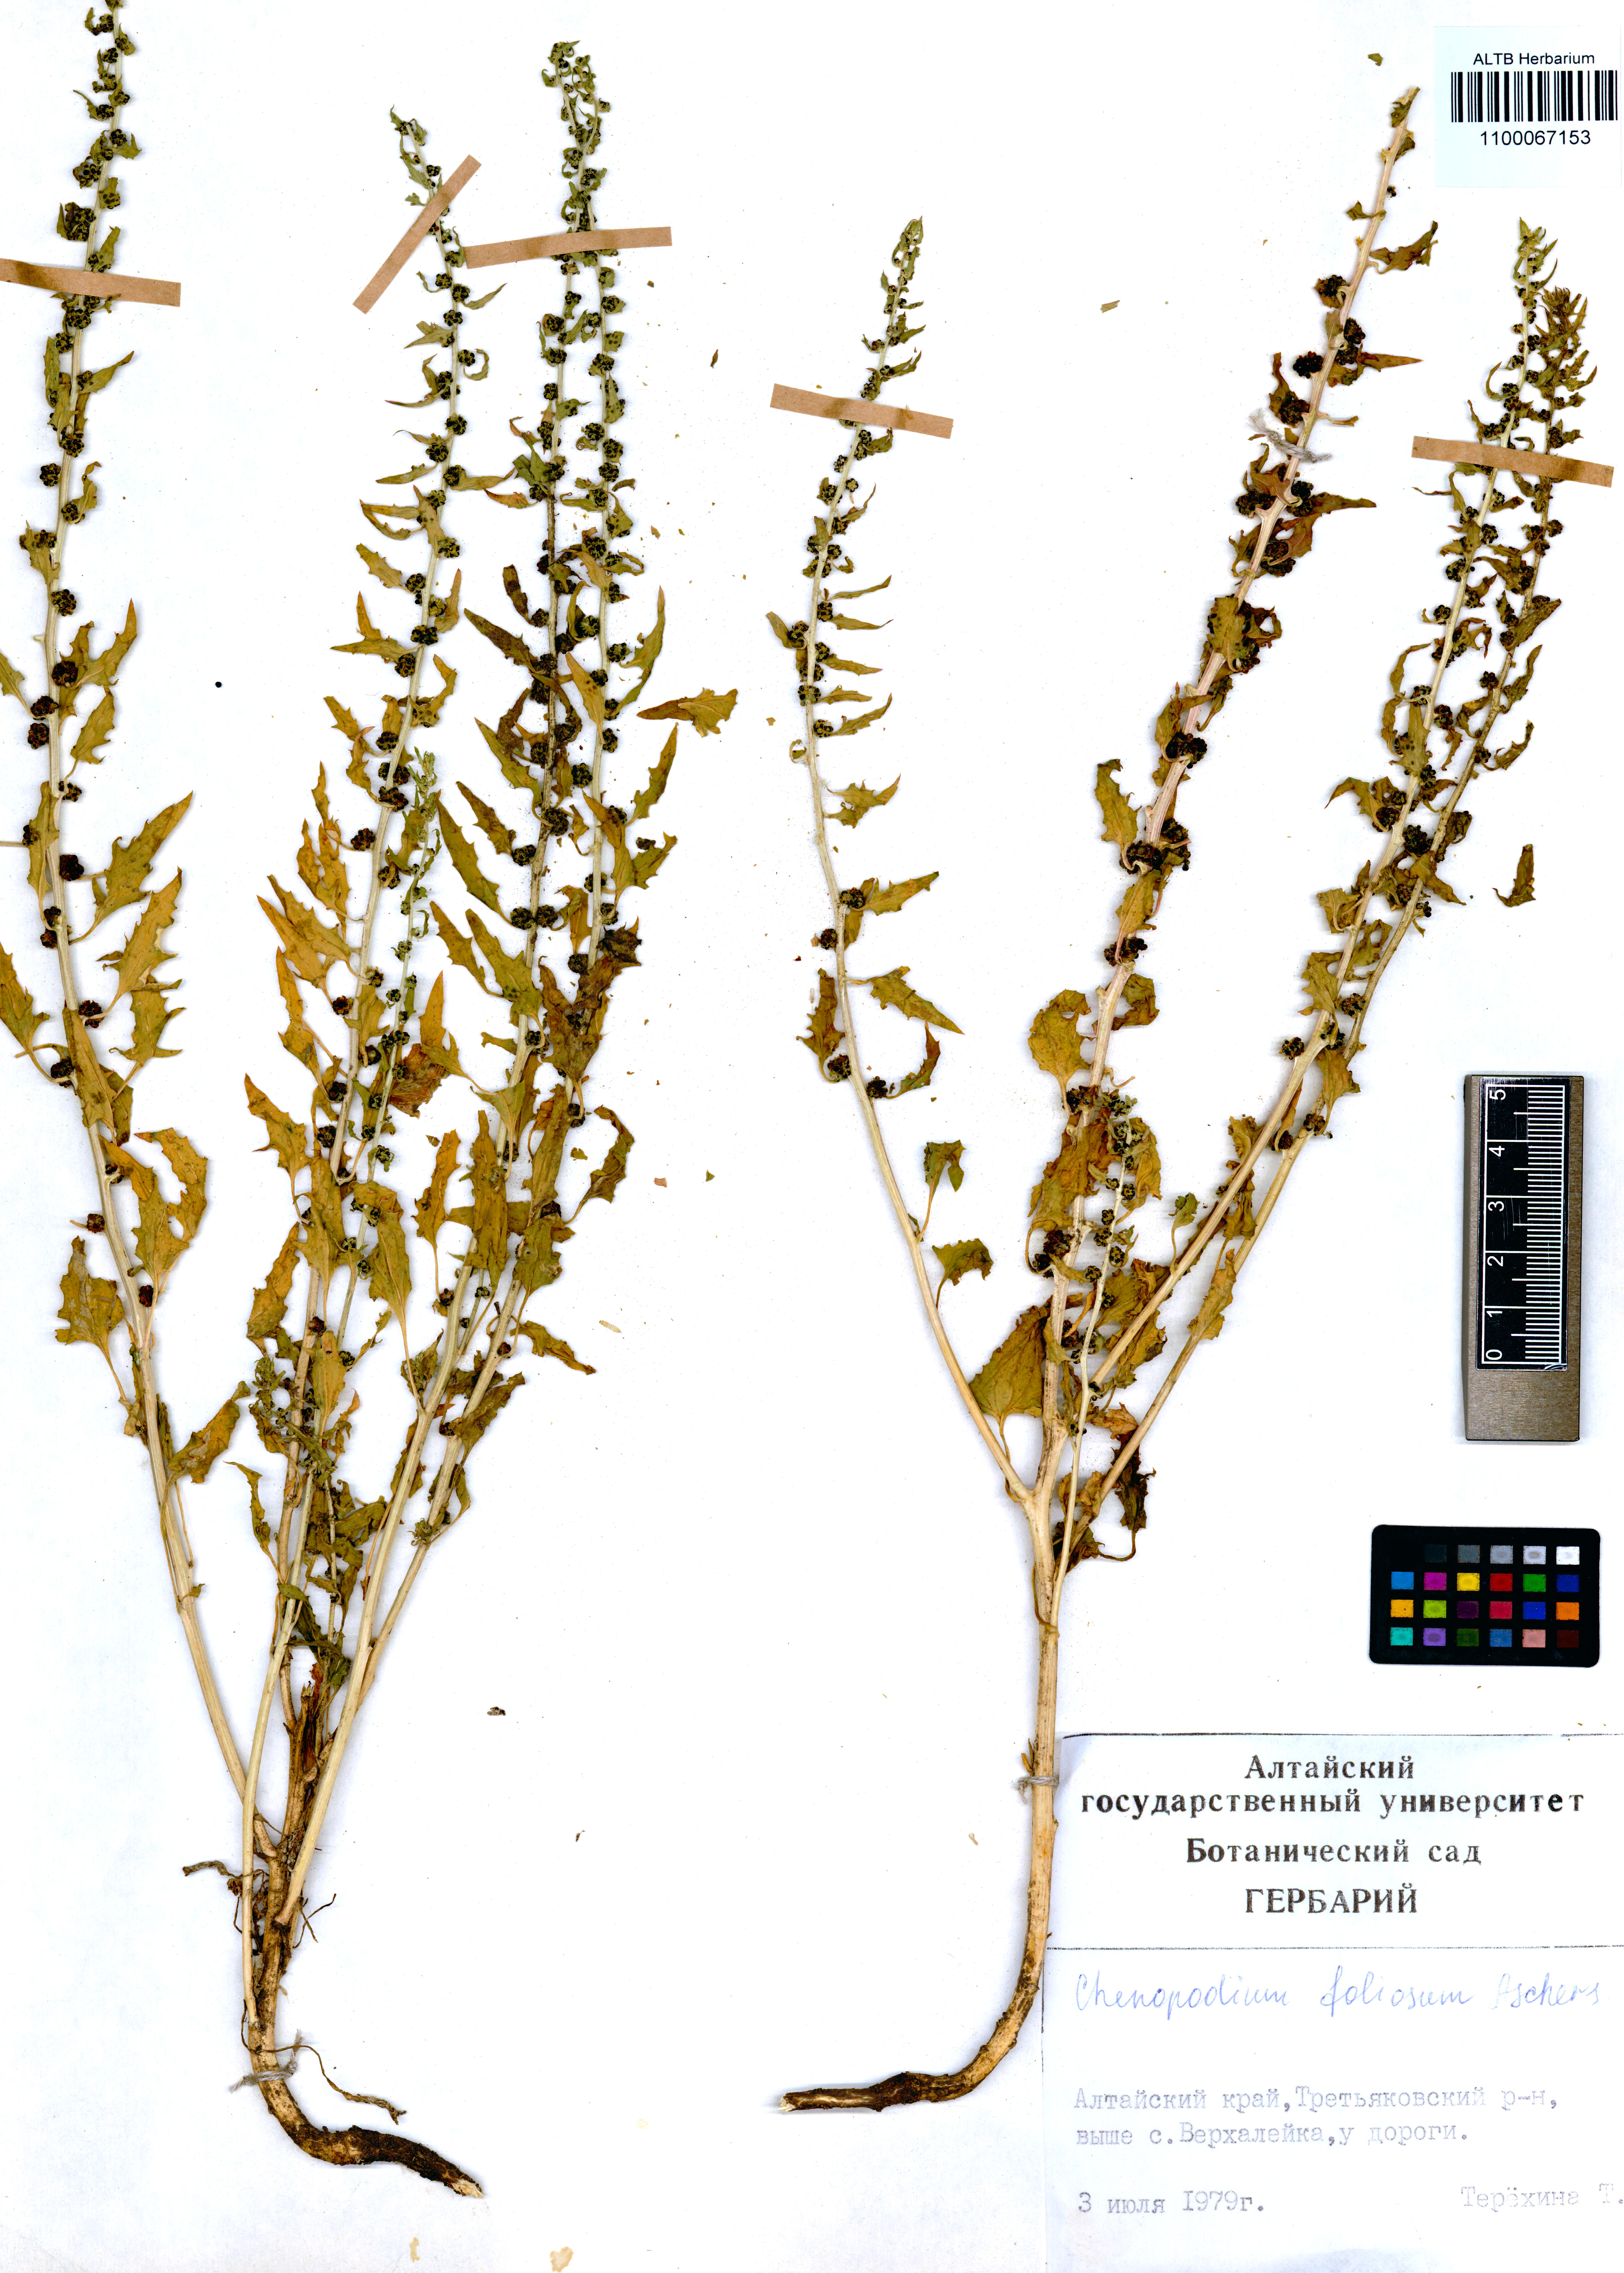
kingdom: Plantae
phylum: Tracheophyta
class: Magnoliopsida
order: Caryophyllales
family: Amaranthaceae
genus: Blitum
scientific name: Blitum virgatum
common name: Strawberry goosefoot
